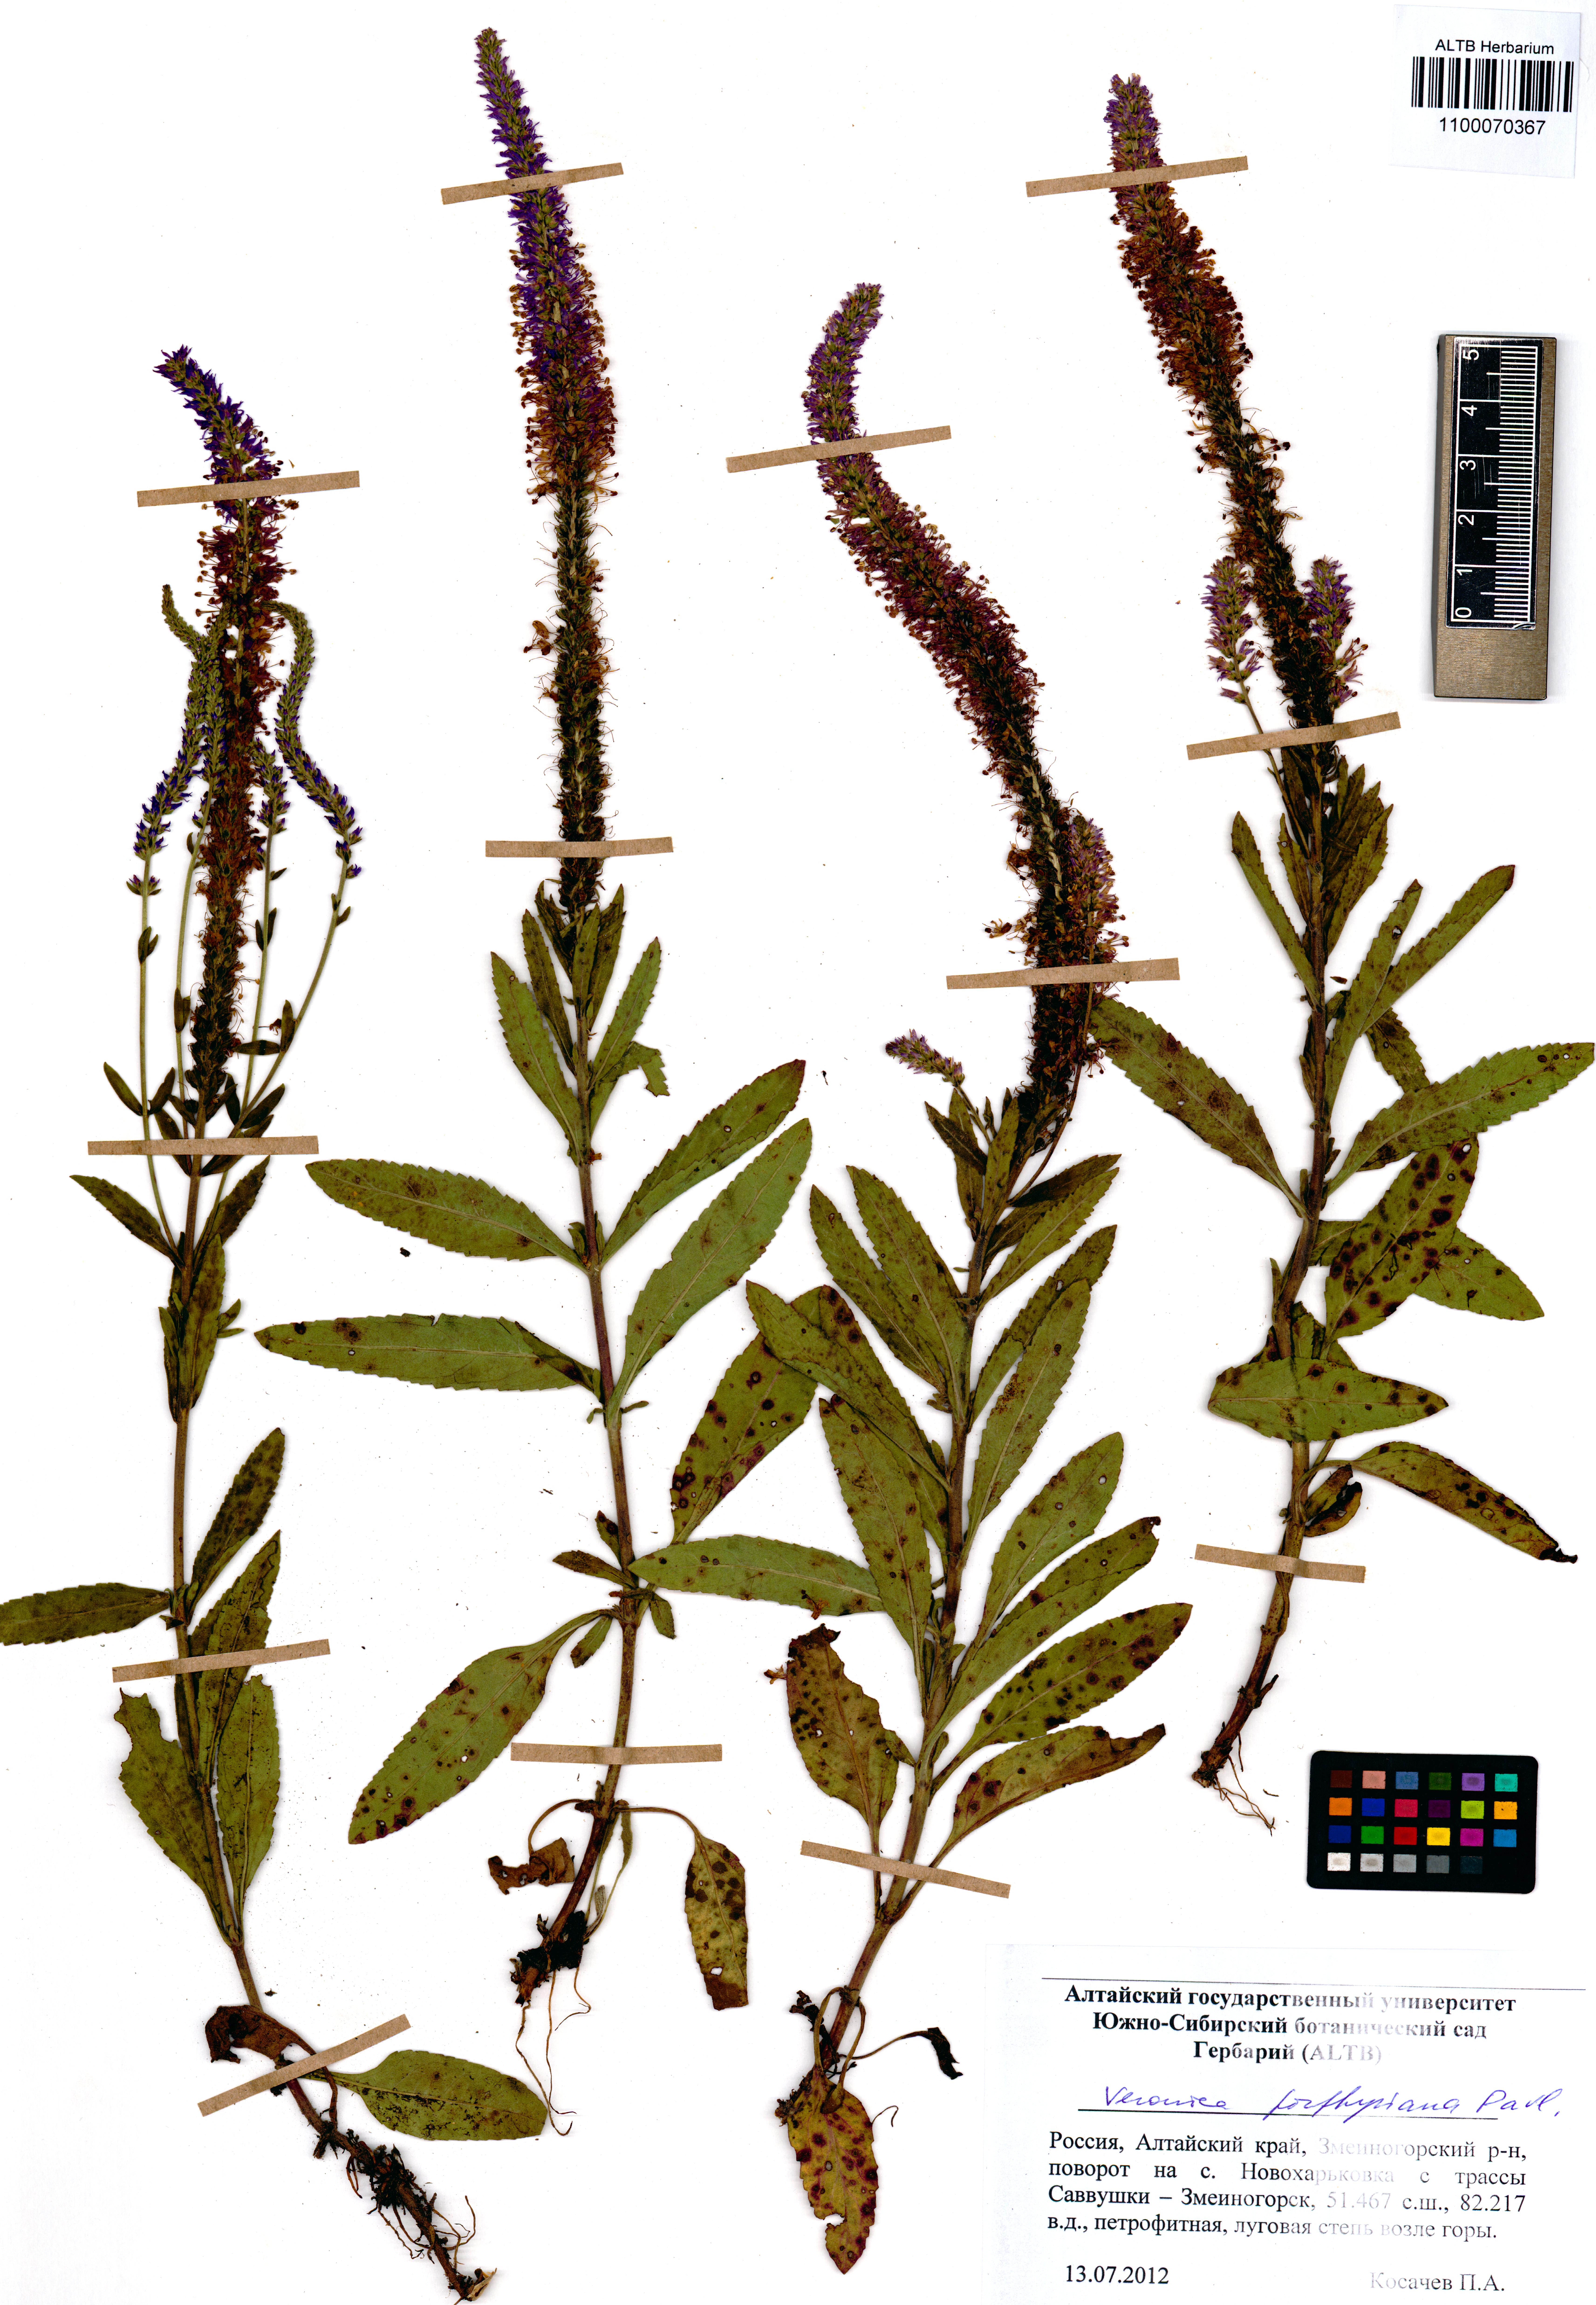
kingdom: Plantae
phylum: Tracheophyta
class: Magnoliopsida
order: Lamiales
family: Plantaginaceae
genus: Veronica
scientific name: Veronica porphyriana
